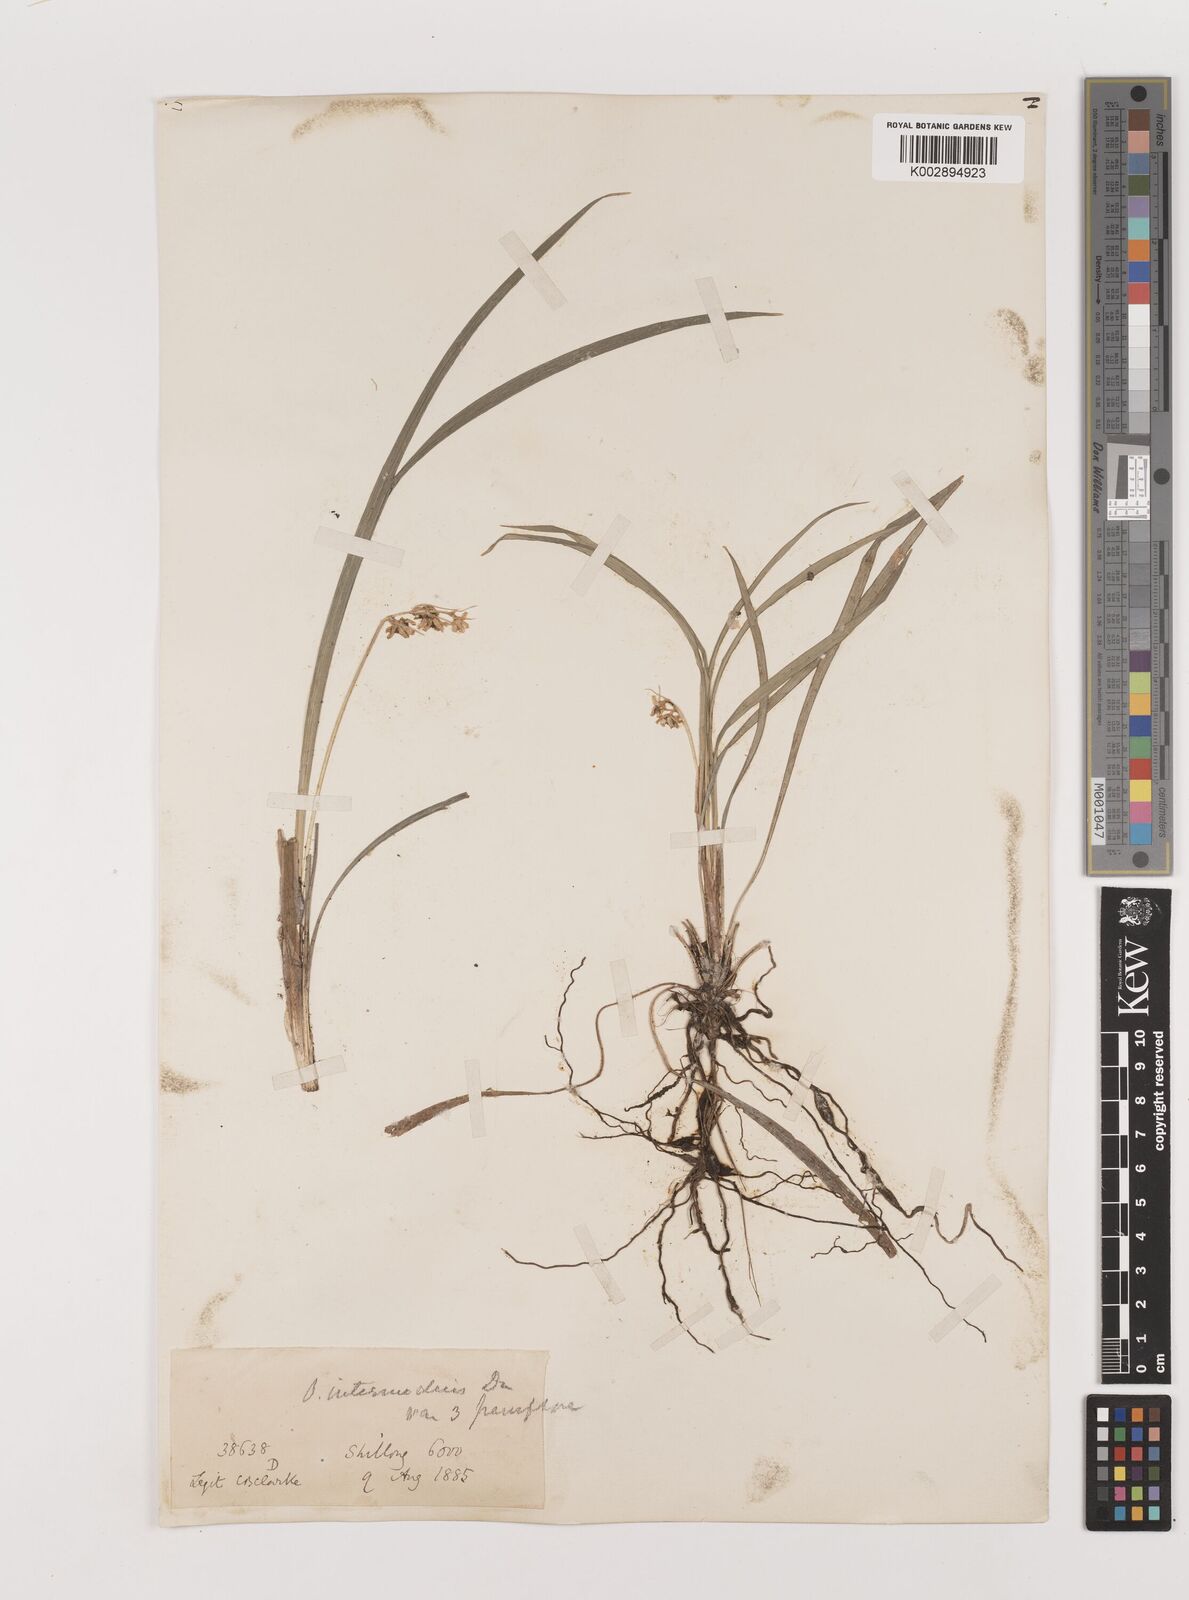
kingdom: Plantae
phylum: Tracheophyta
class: Liliopsida
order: Asparagales
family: Asparagaceae
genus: Ophiopogon
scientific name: Ophiopogon intermedius
